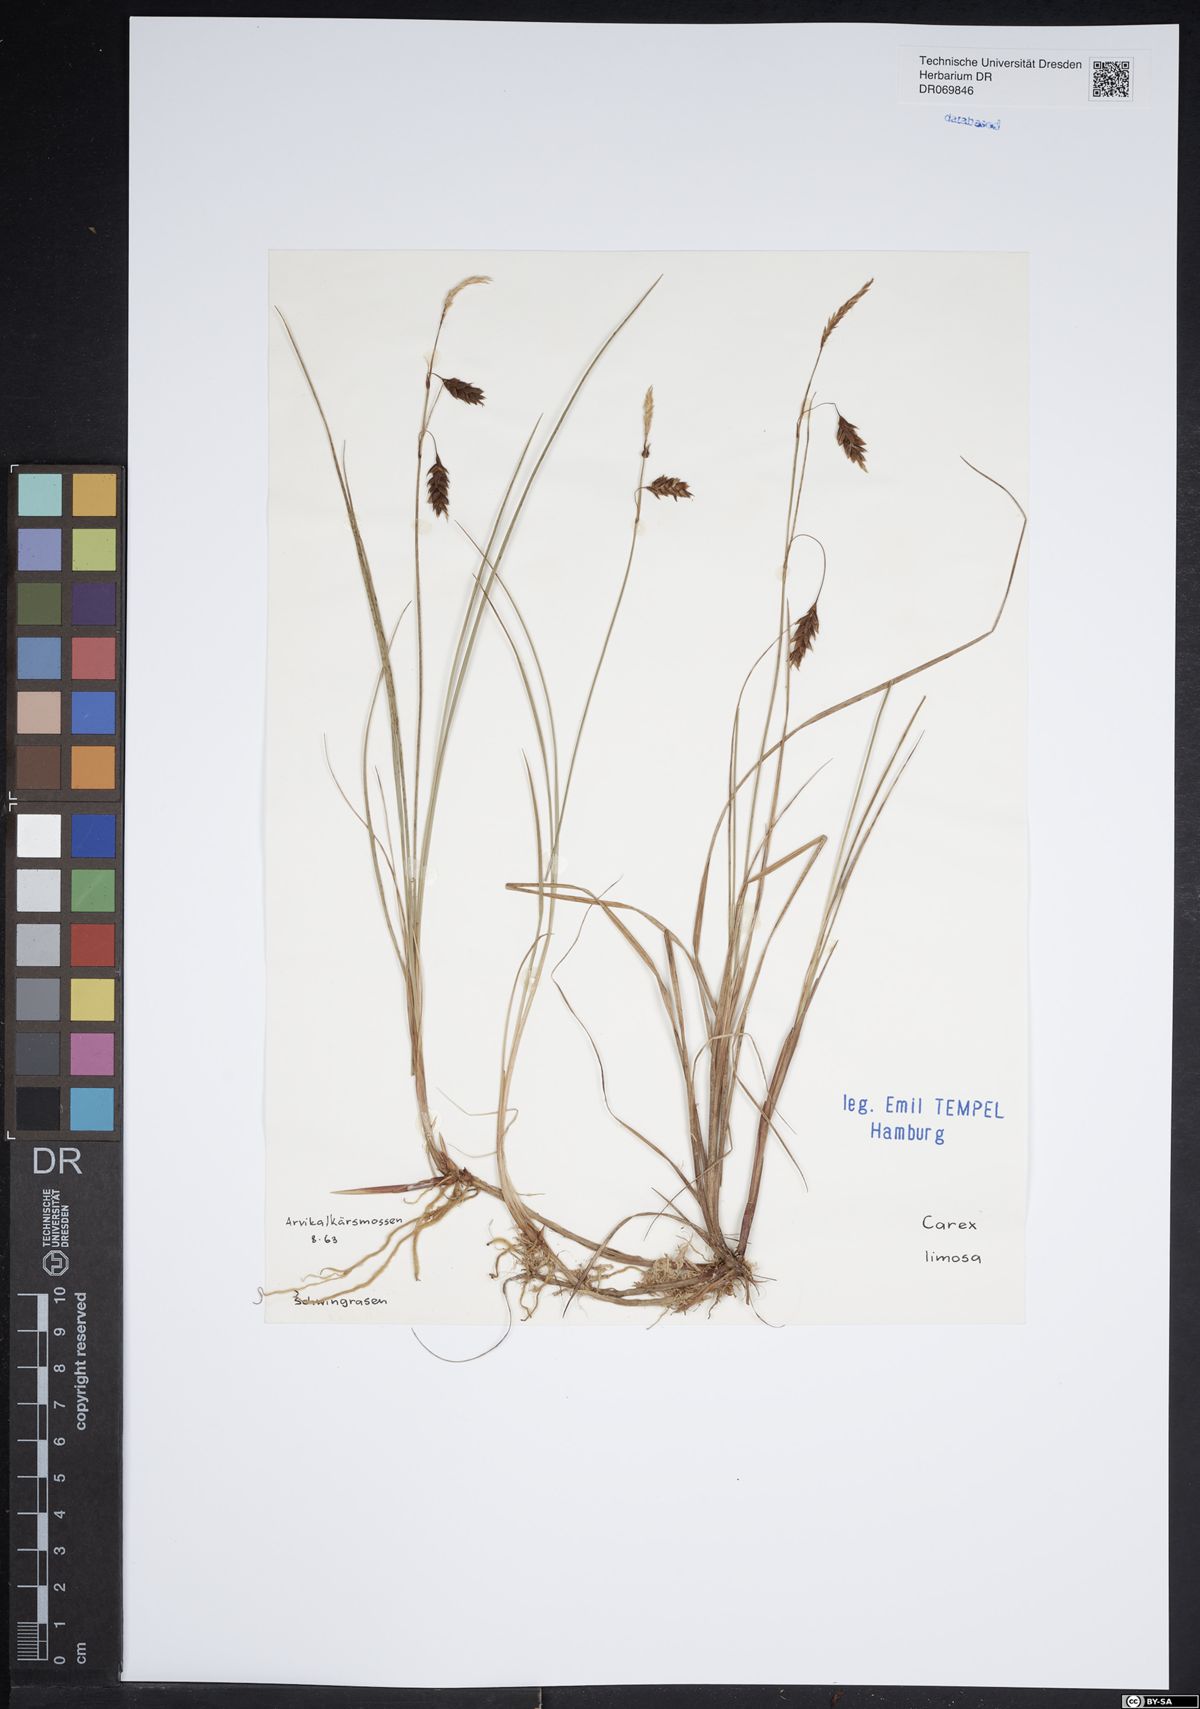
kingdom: Plantae
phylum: Tracheophyta
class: Liliopsida
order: Poales
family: Cyperaceae
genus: Carex
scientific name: Carex limosa
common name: Bog sedge
